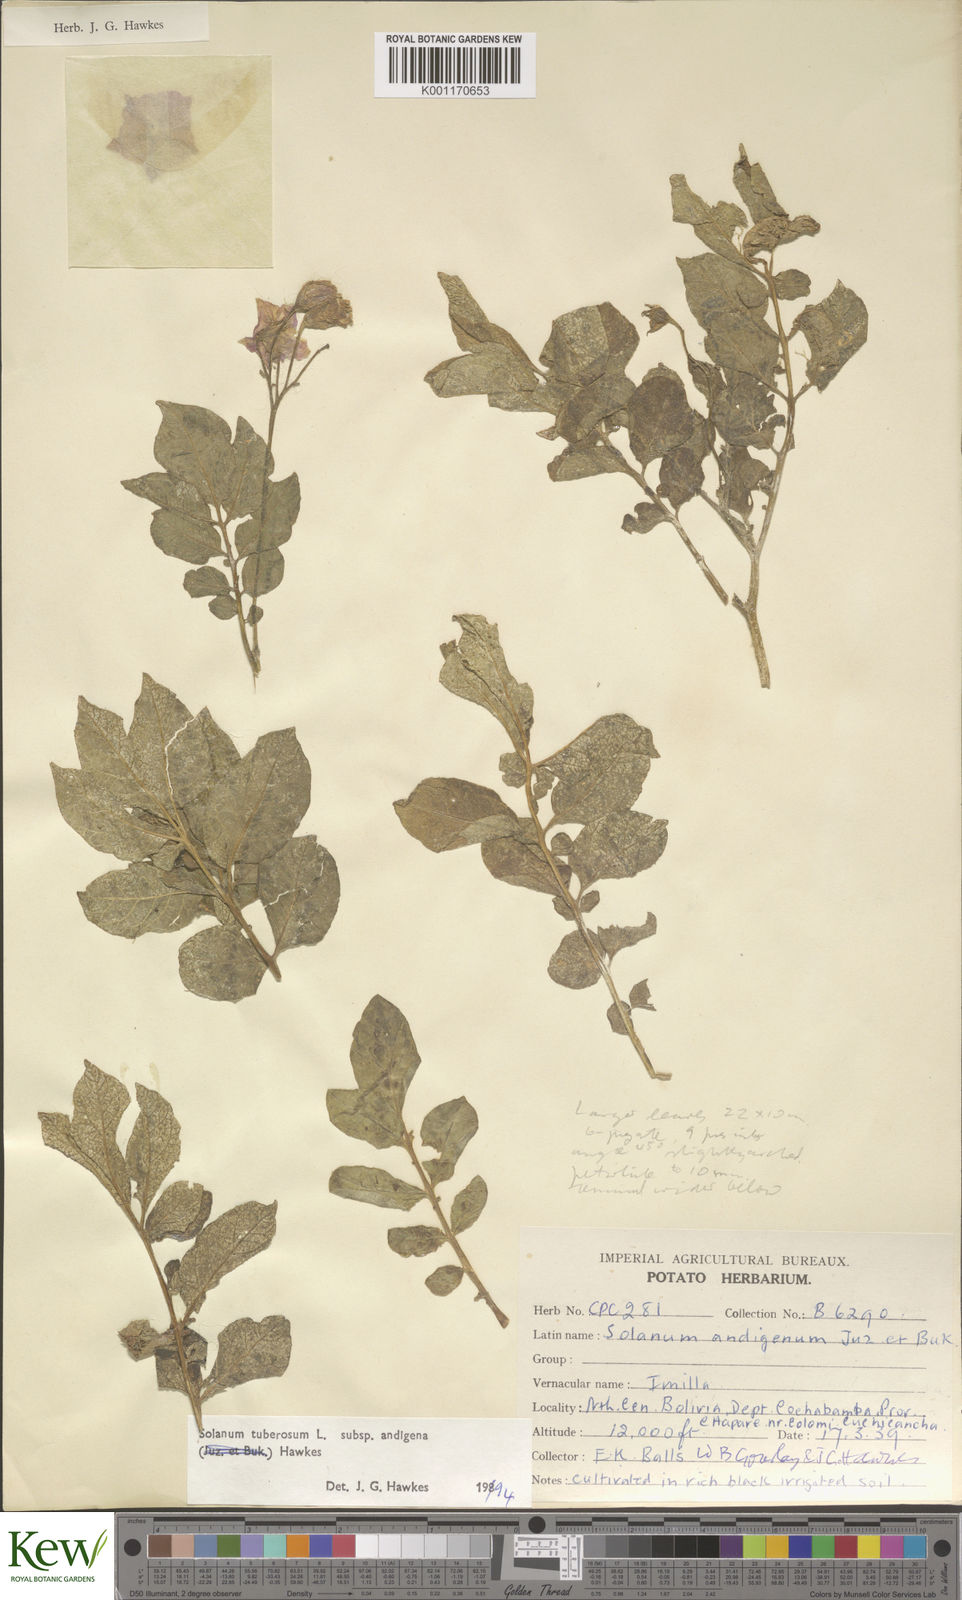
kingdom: Plantae
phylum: Tracheophyta
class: Magnoliopsida
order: Solanales
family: Solanaceae
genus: Solanum
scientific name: Solanum tuberosum
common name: Potato
